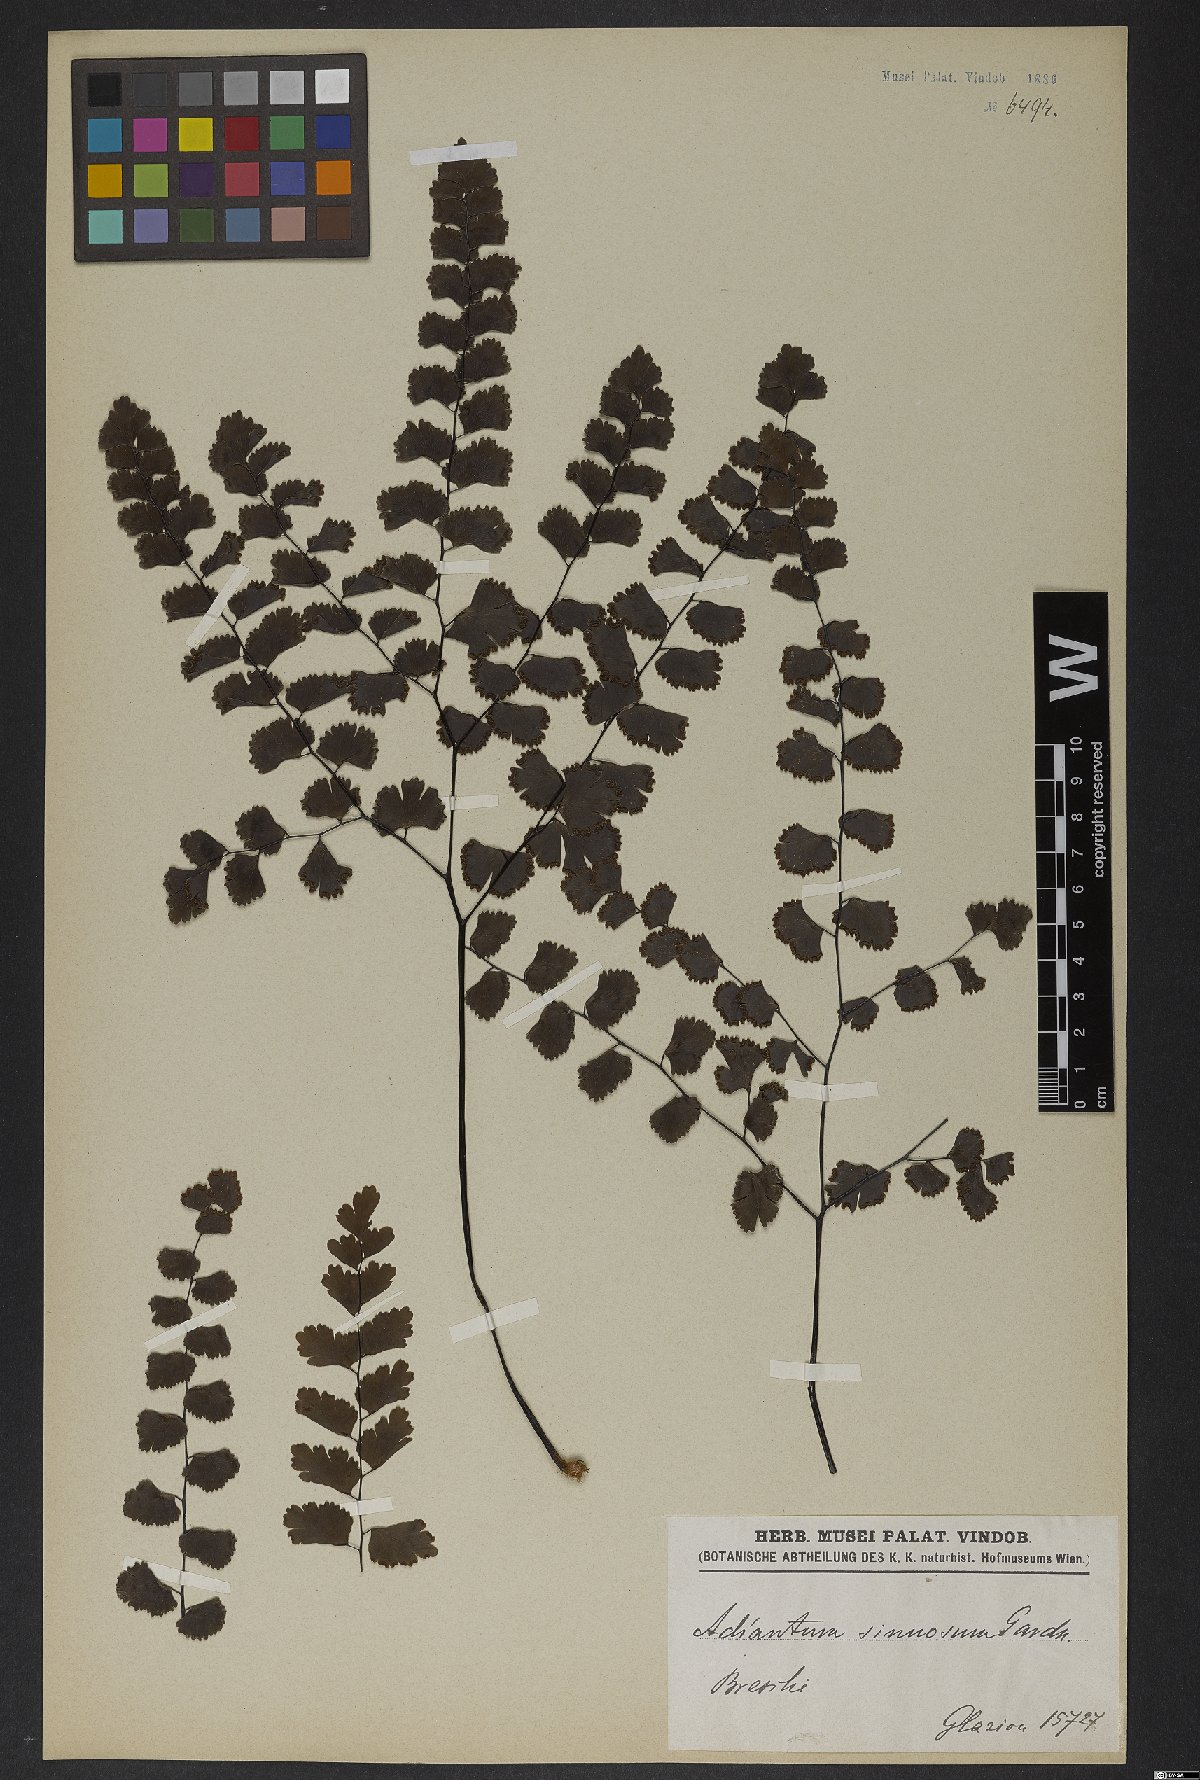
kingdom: Plantae
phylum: Tracheophyta
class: Polypodiopsida
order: Polypodiales
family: Pteridaceae
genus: Adiantum
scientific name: Adiantum sinuosum
